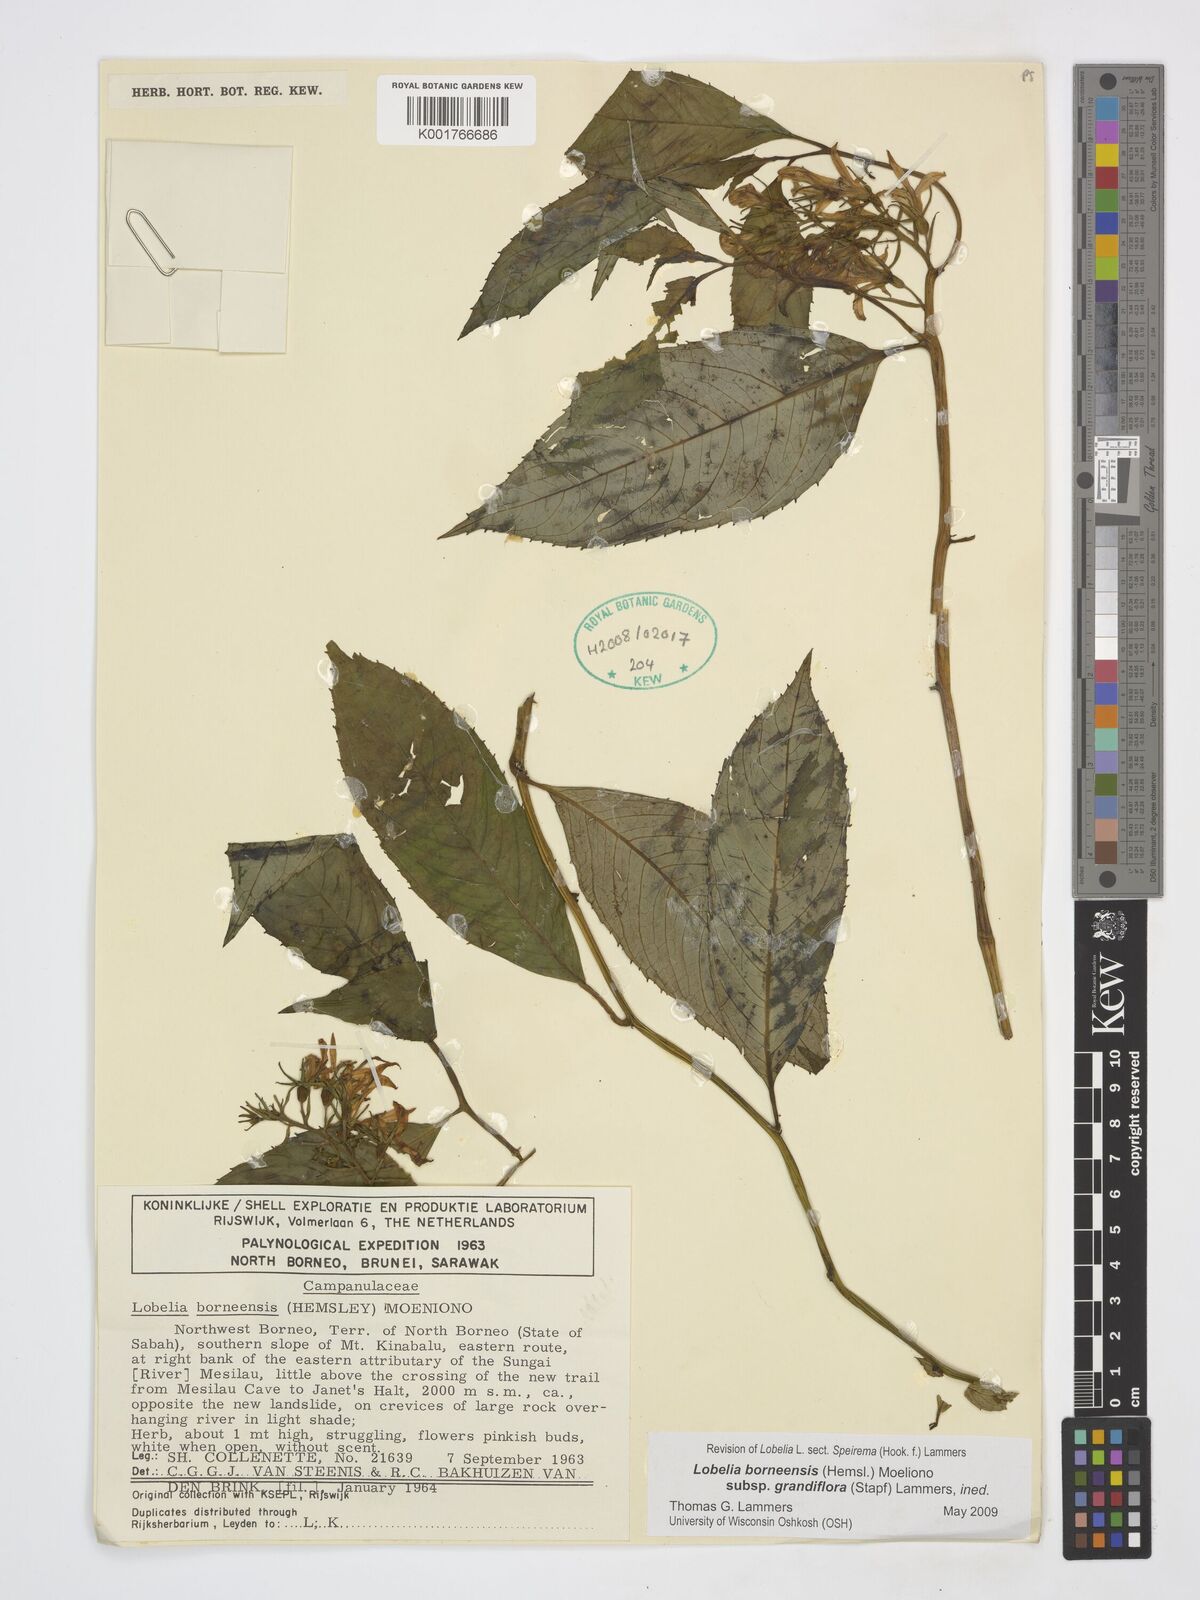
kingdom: Plantae
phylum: Tracheophyta
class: Magnoliopsida
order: Asterales
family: Campanulaceae
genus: Lobelia
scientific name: Lobelia borneensis
